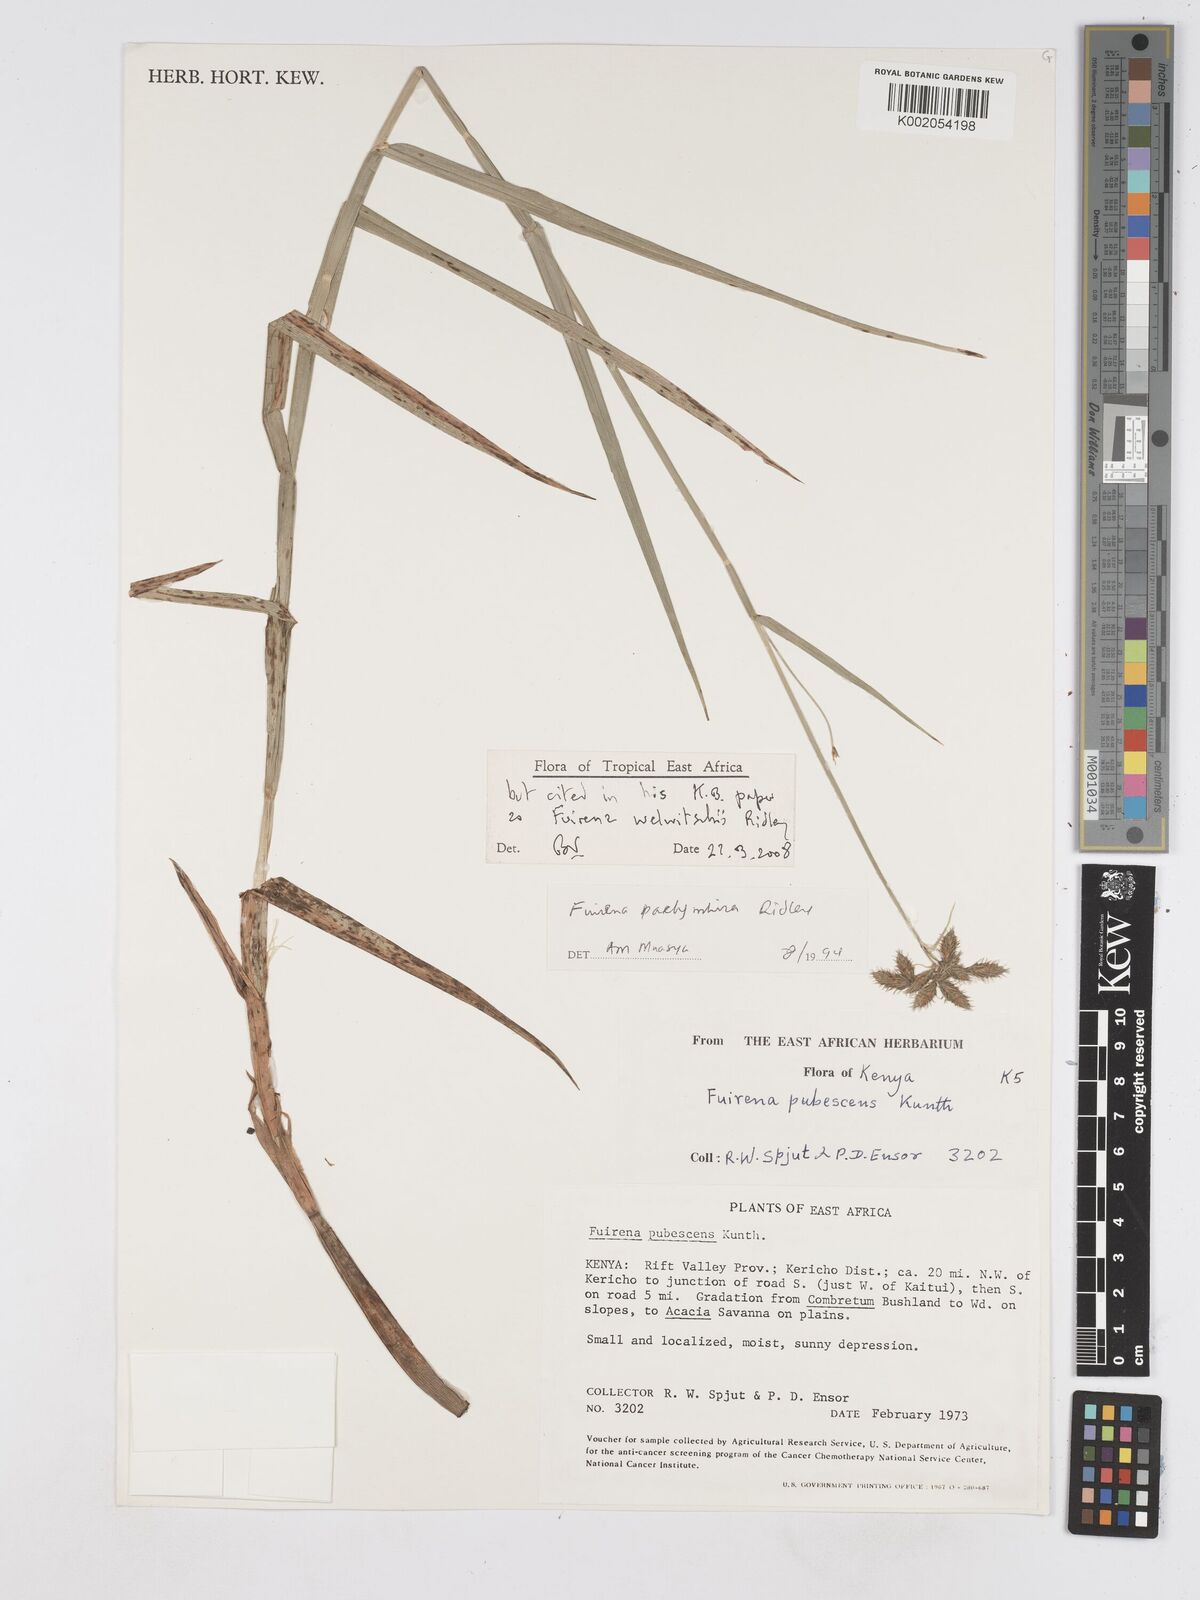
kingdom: Plantae
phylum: Tracheophyta
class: Liliopsida
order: Poales
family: Cyperaceae
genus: Fuirena
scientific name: Fuirena welwitschii
